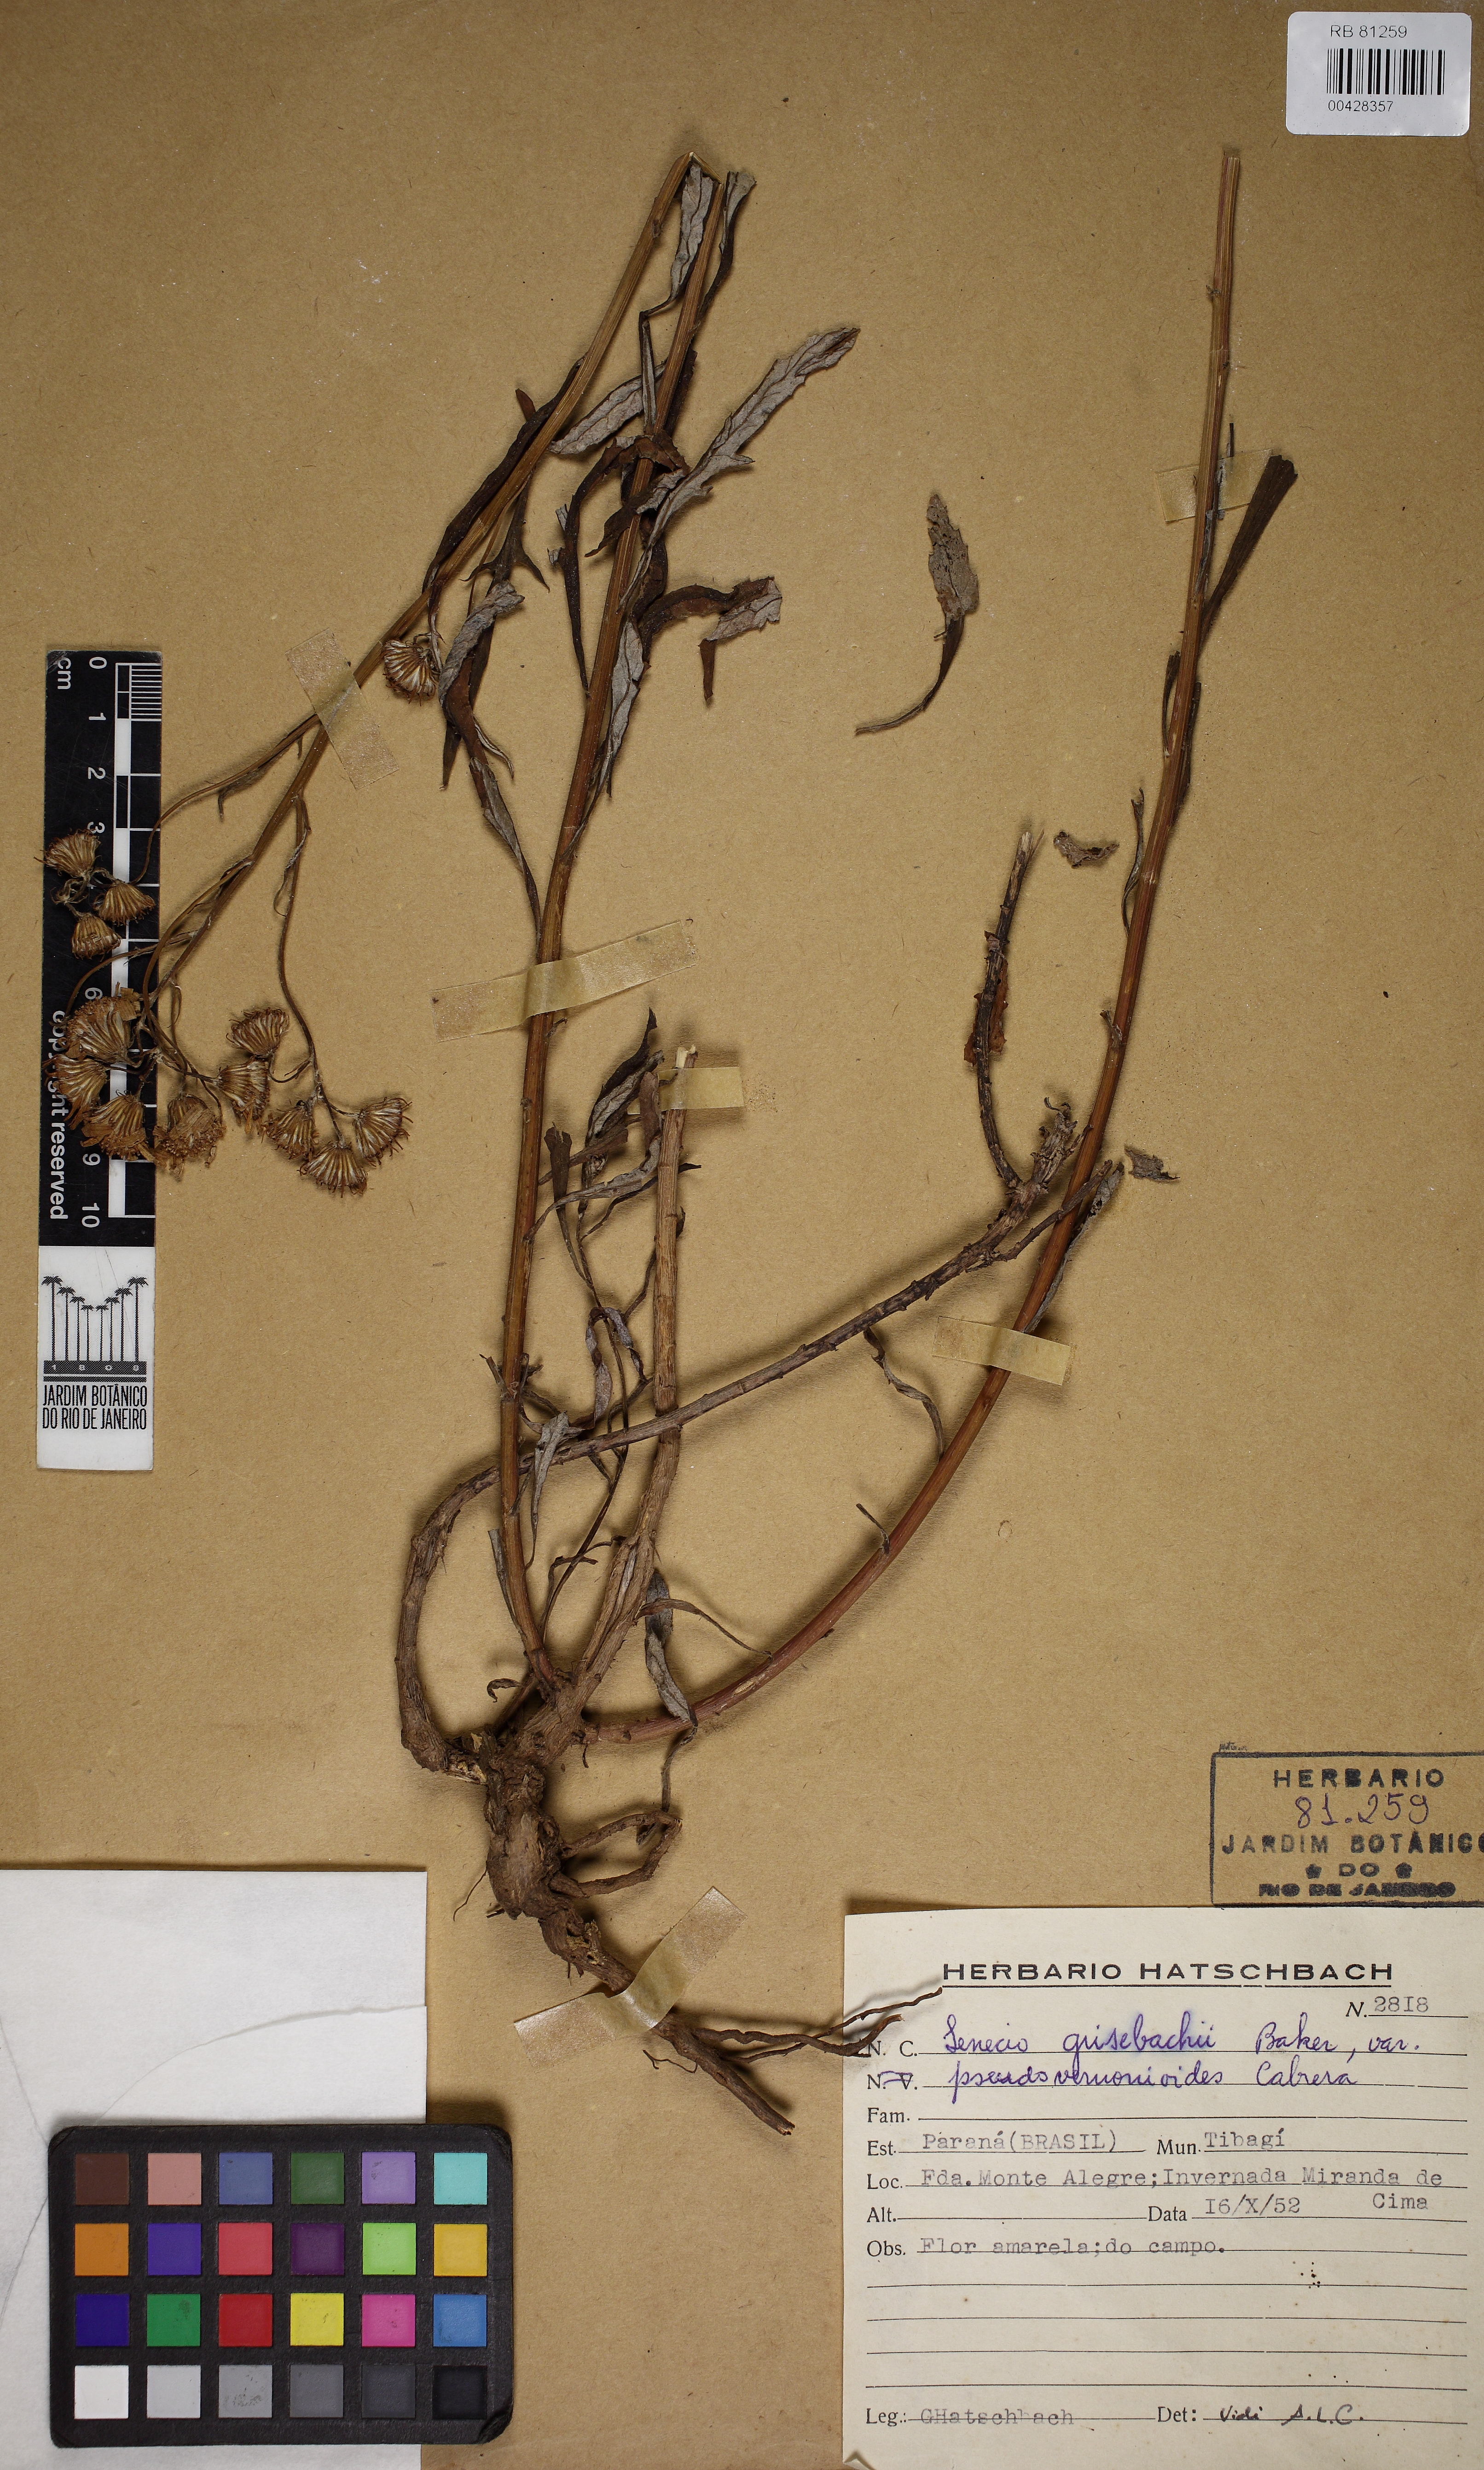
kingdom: Plantae
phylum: Tracheophyta
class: Magnoliopsida
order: Asterales
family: Asteraceae
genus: Senecio
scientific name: Senecio grisebachii
